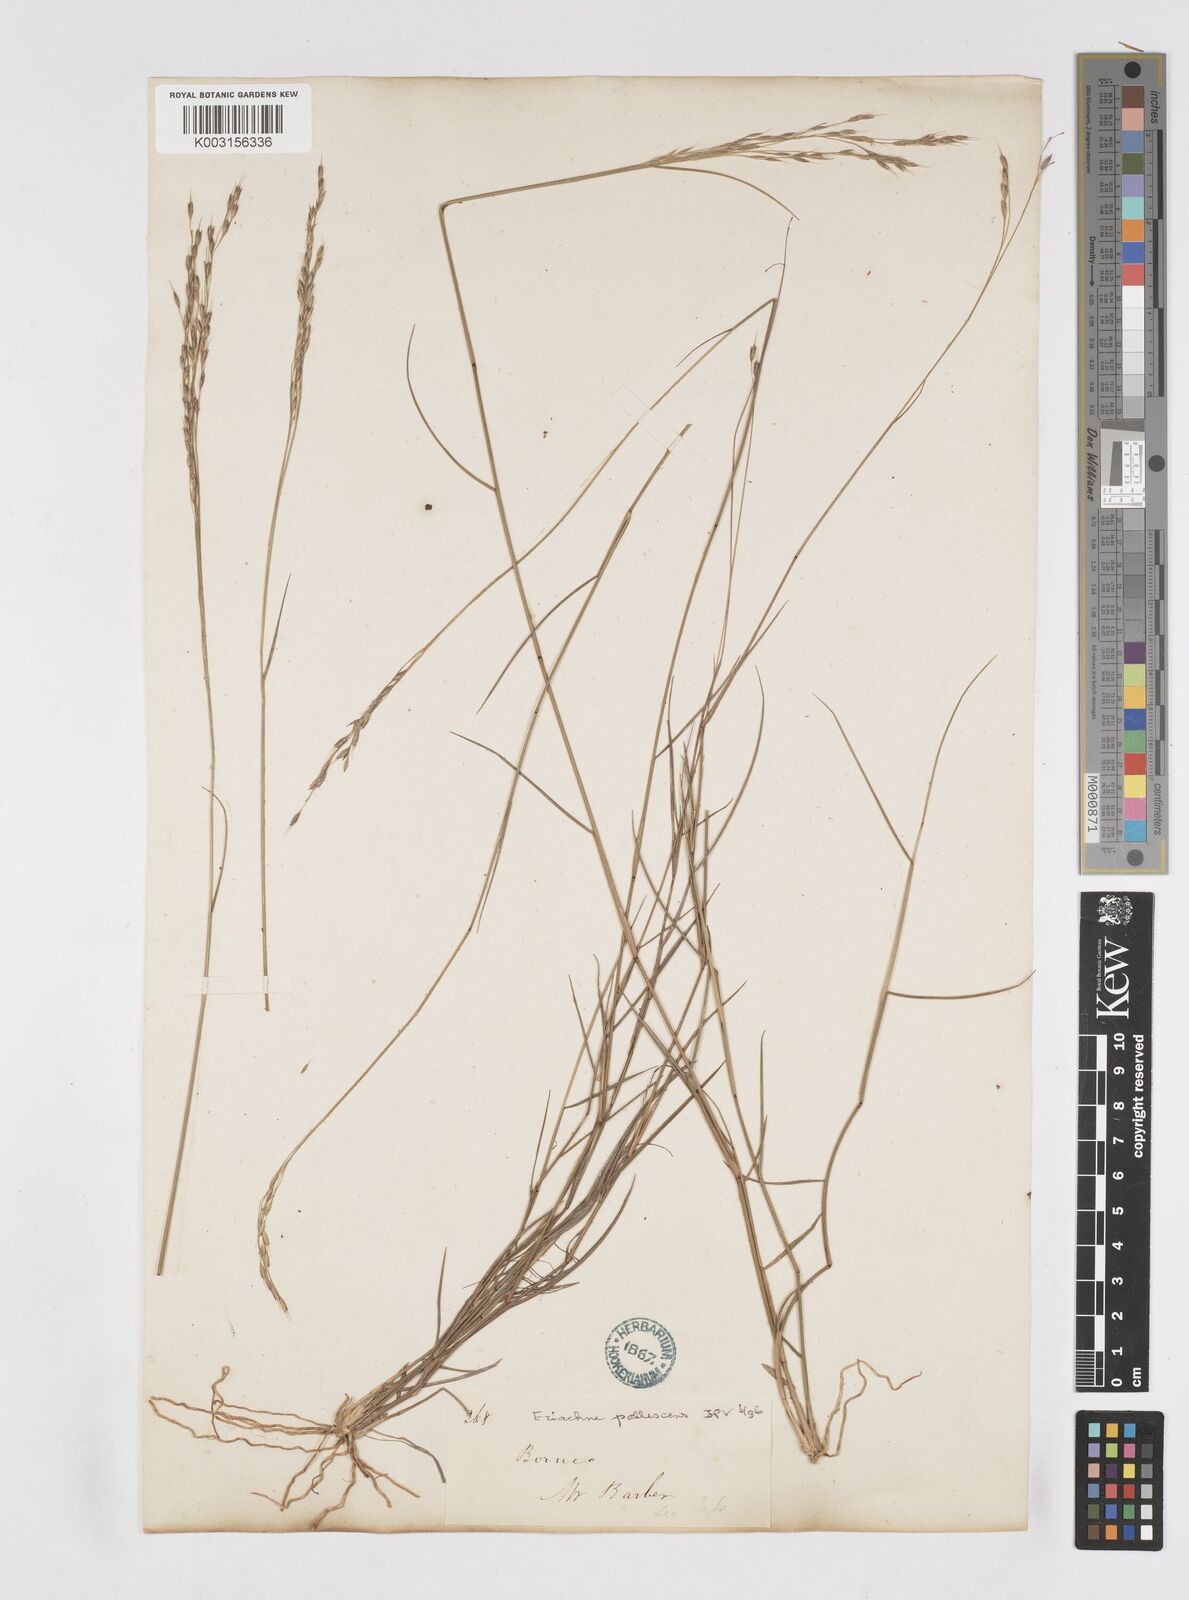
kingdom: Plantae
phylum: Tracheophyta
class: Liliopsida
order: Poales
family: Poaceae
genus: Eriachne
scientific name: Eriachne pallescens
